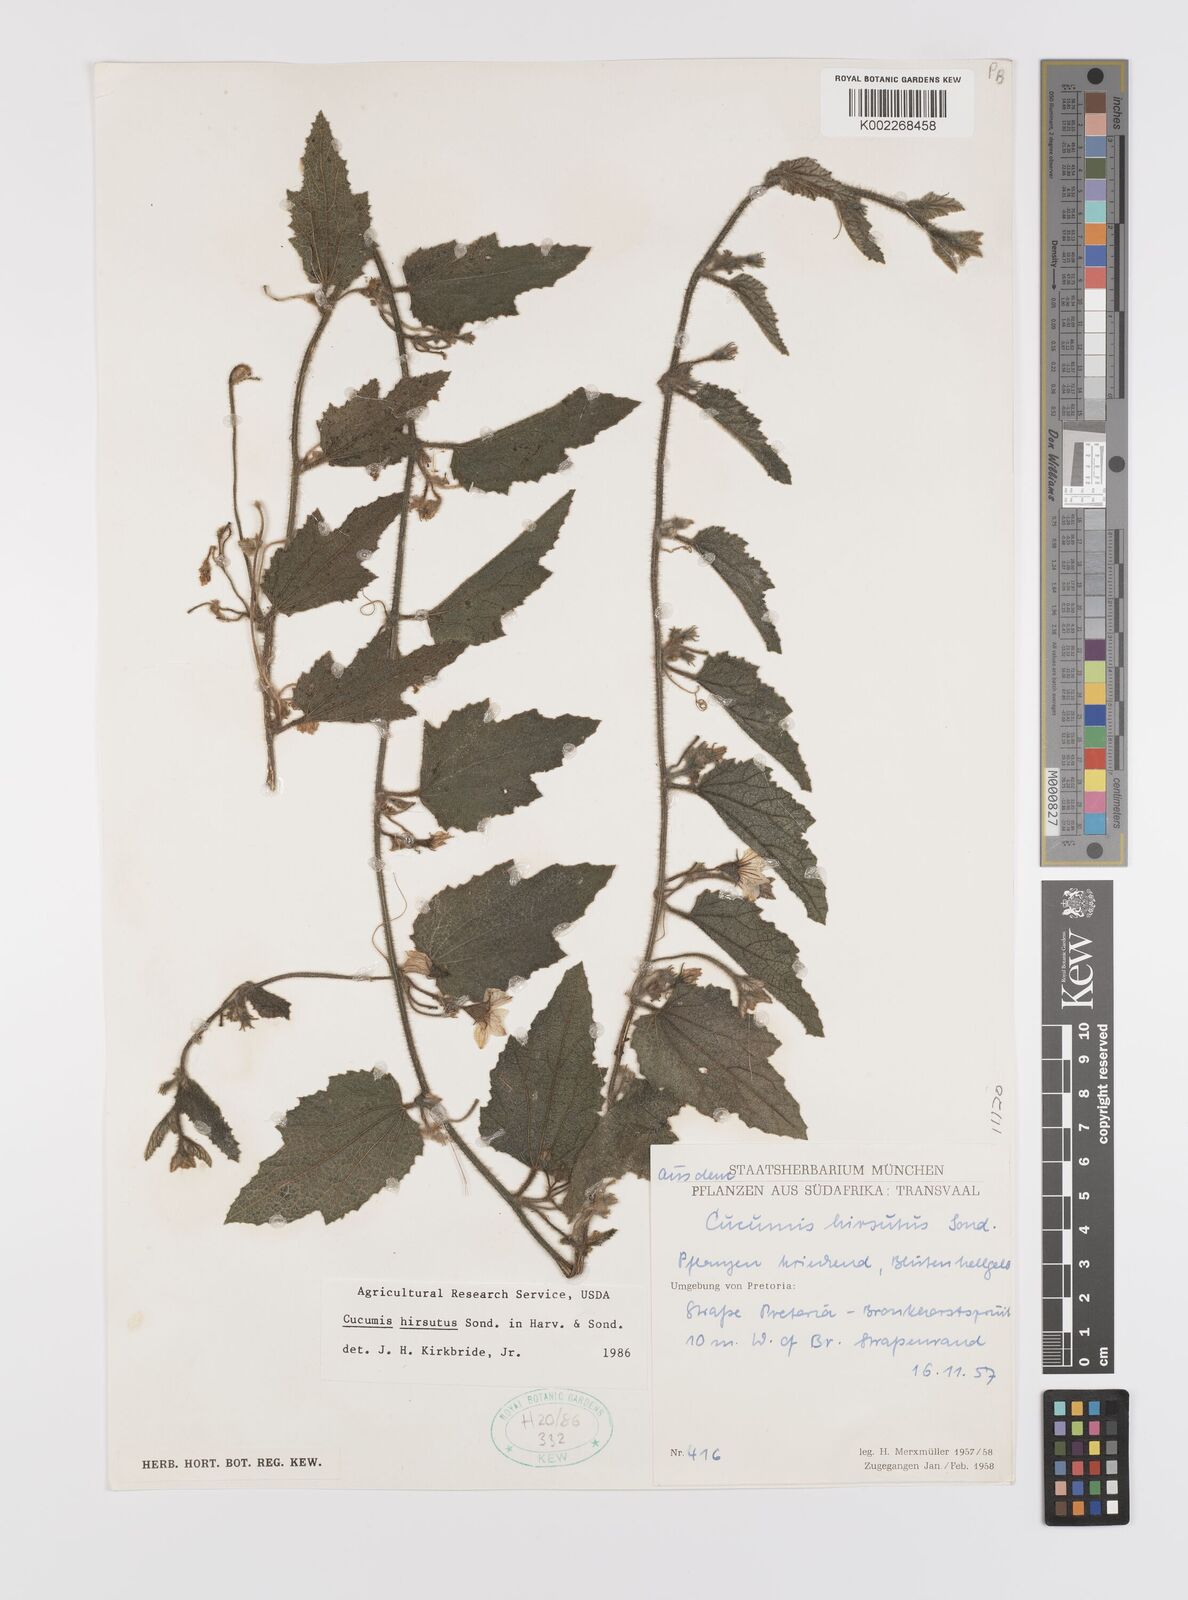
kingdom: Plantae
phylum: Tracheophyta
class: Magnoliopsida
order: Cucurbitales
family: Cucurbitaceae
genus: Cucumis
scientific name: Cucumis hirsutus
